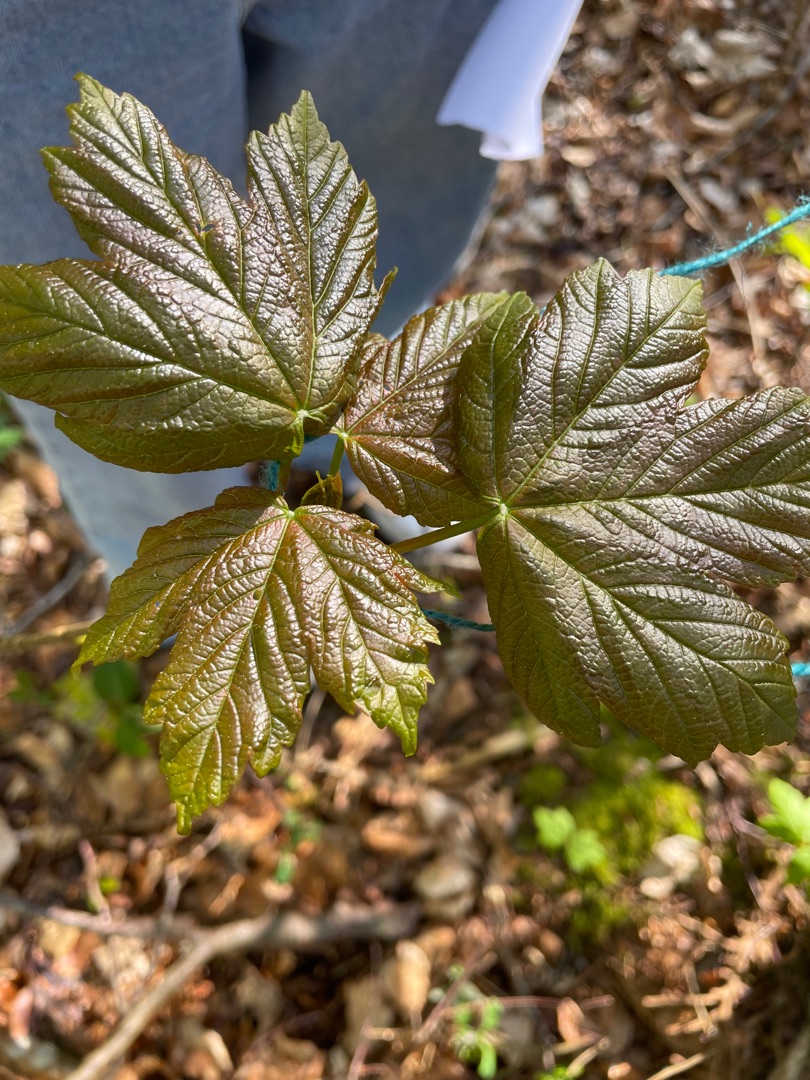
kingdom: Plantae
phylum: Tracheophyta
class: Magnoliopsida
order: Sapindales
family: Sapindaceae
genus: Acer
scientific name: Acer pseudoplatanus
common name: Ahorn
